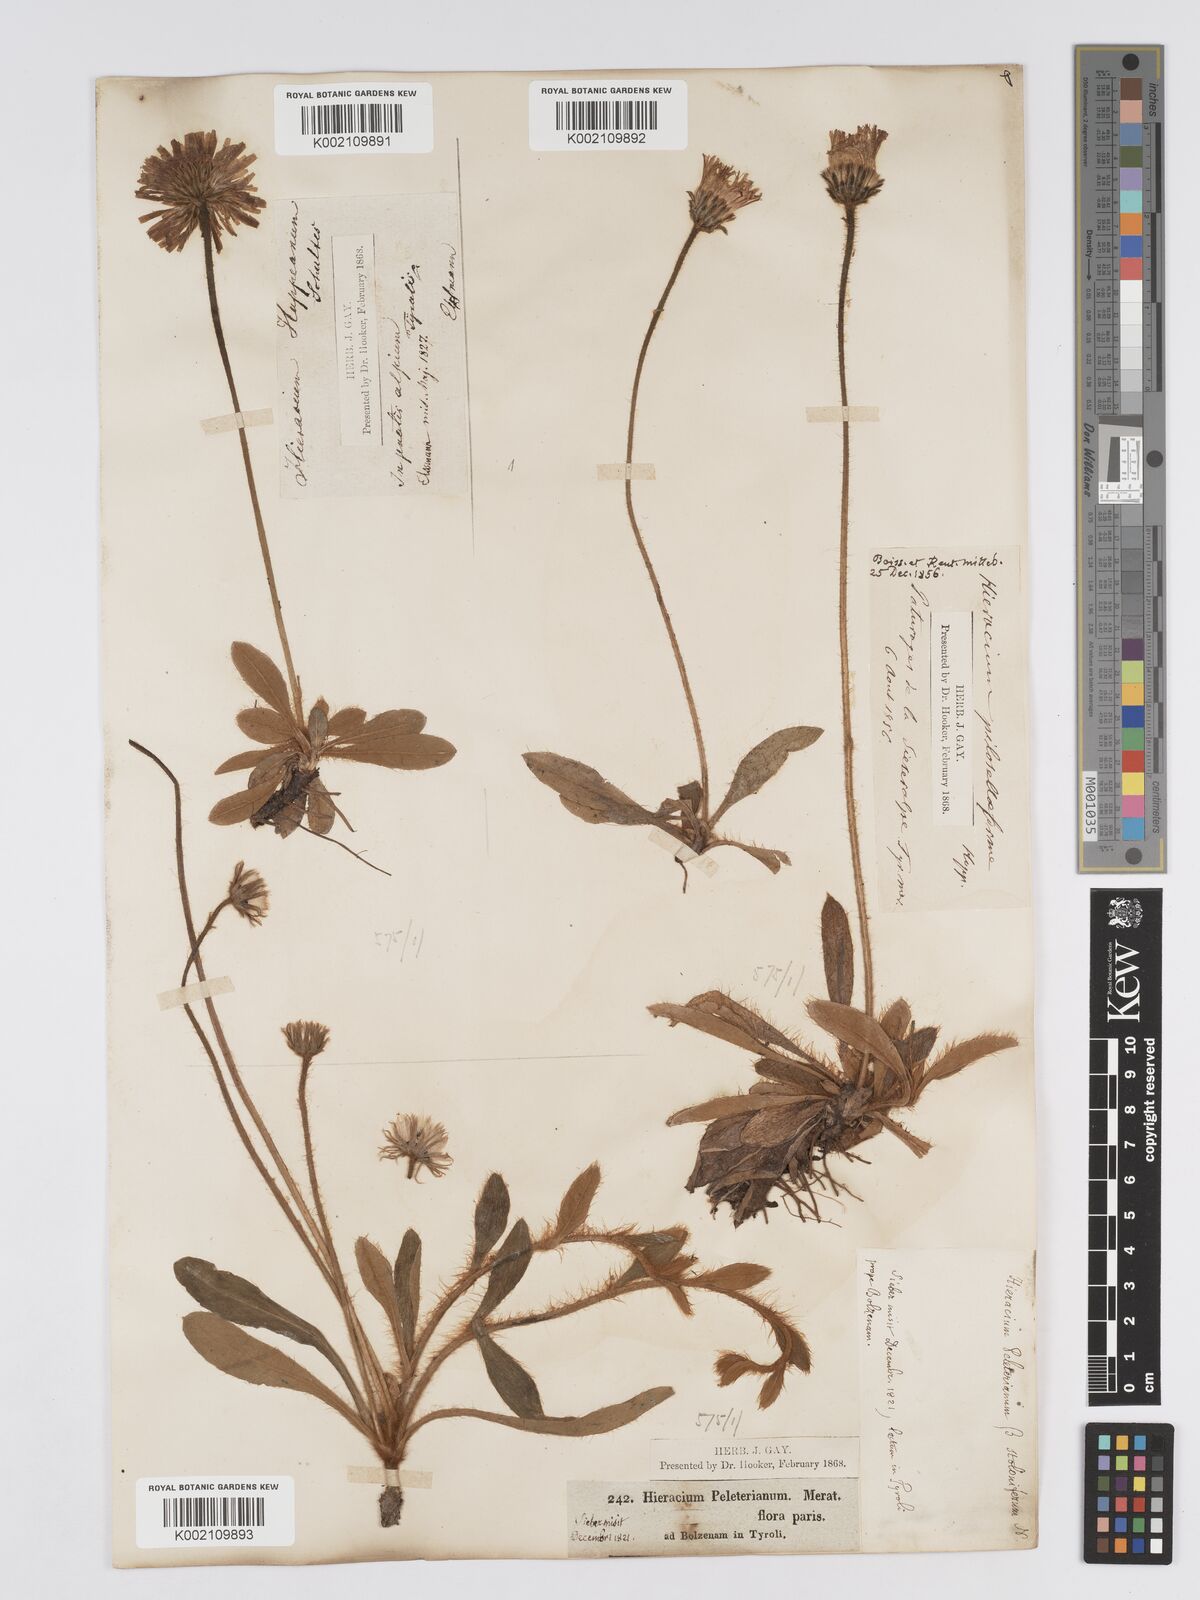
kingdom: Plantae
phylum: Tracheophyta
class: Magnoliopsida
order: Asterales
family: Asteraceae
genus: Pilosella
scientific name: Pilosella hoppeana
